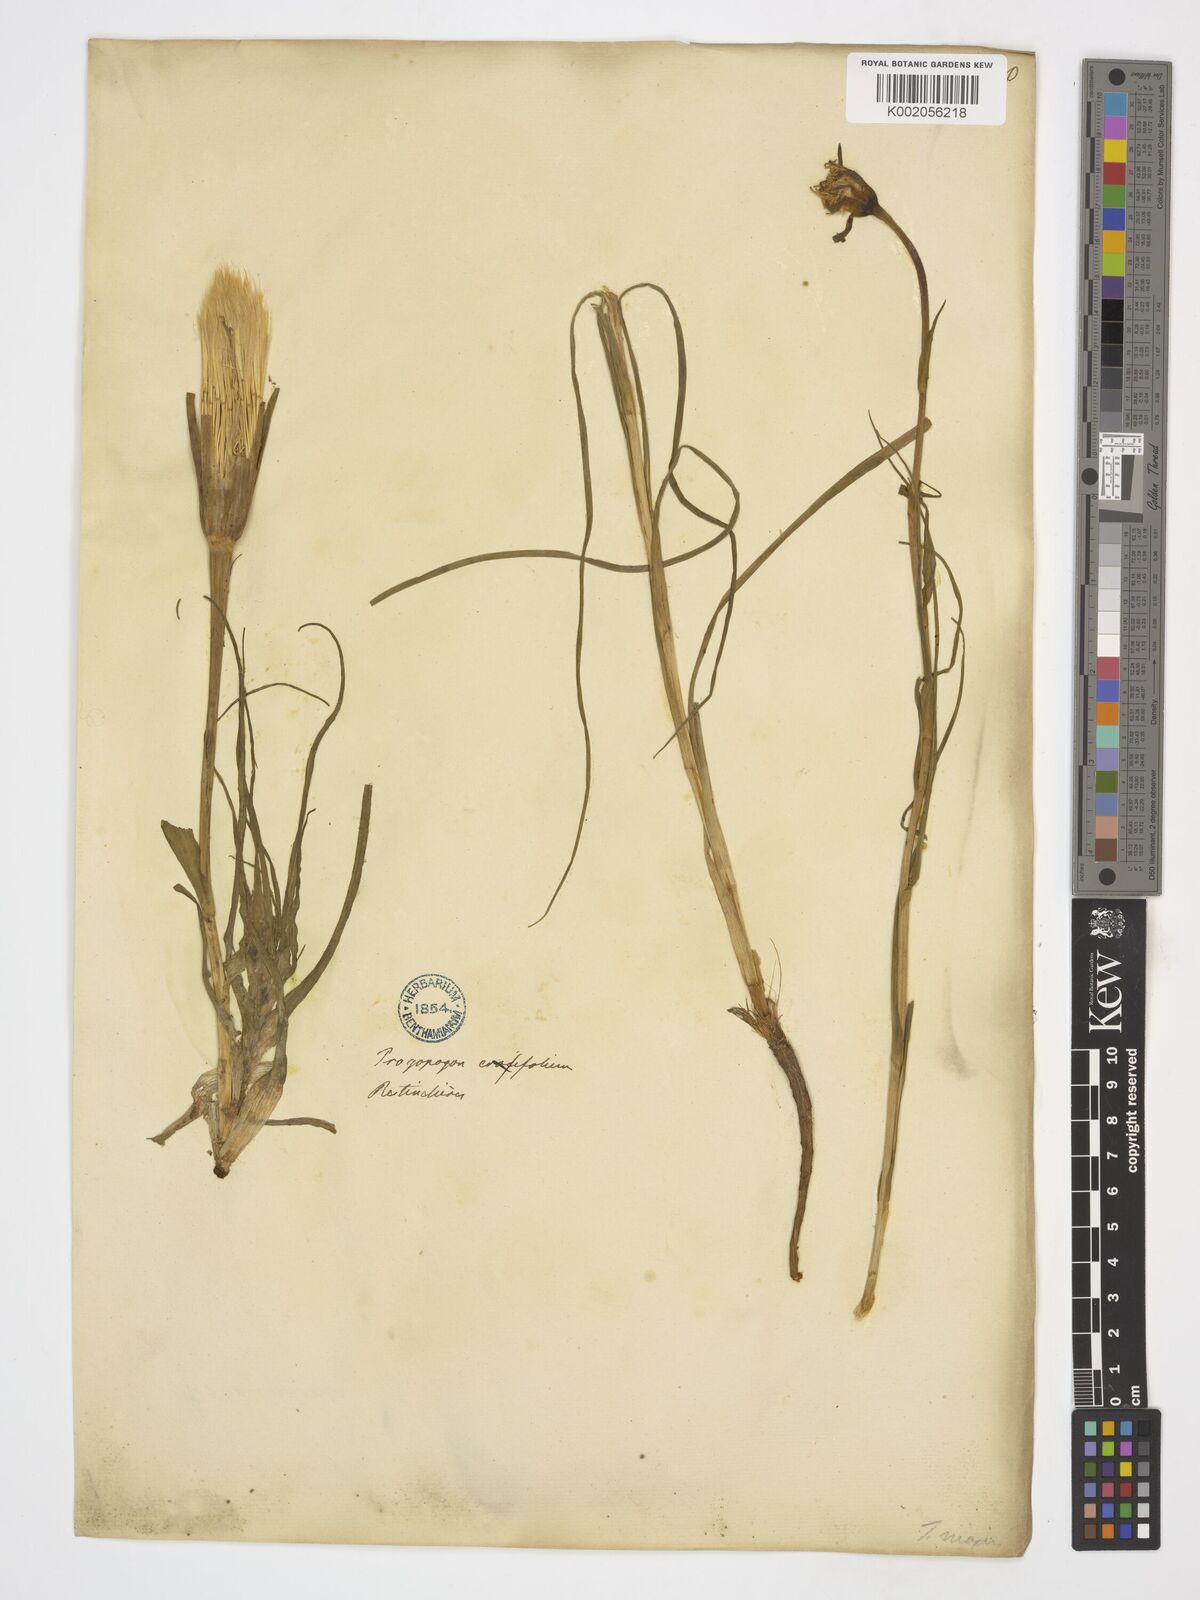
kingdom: Plantae
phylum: Tracheophyta
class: Magnoliopsida
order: Asterales
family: Asteraceae
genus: Tragopogon
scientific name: Tragopogon crocifolius
